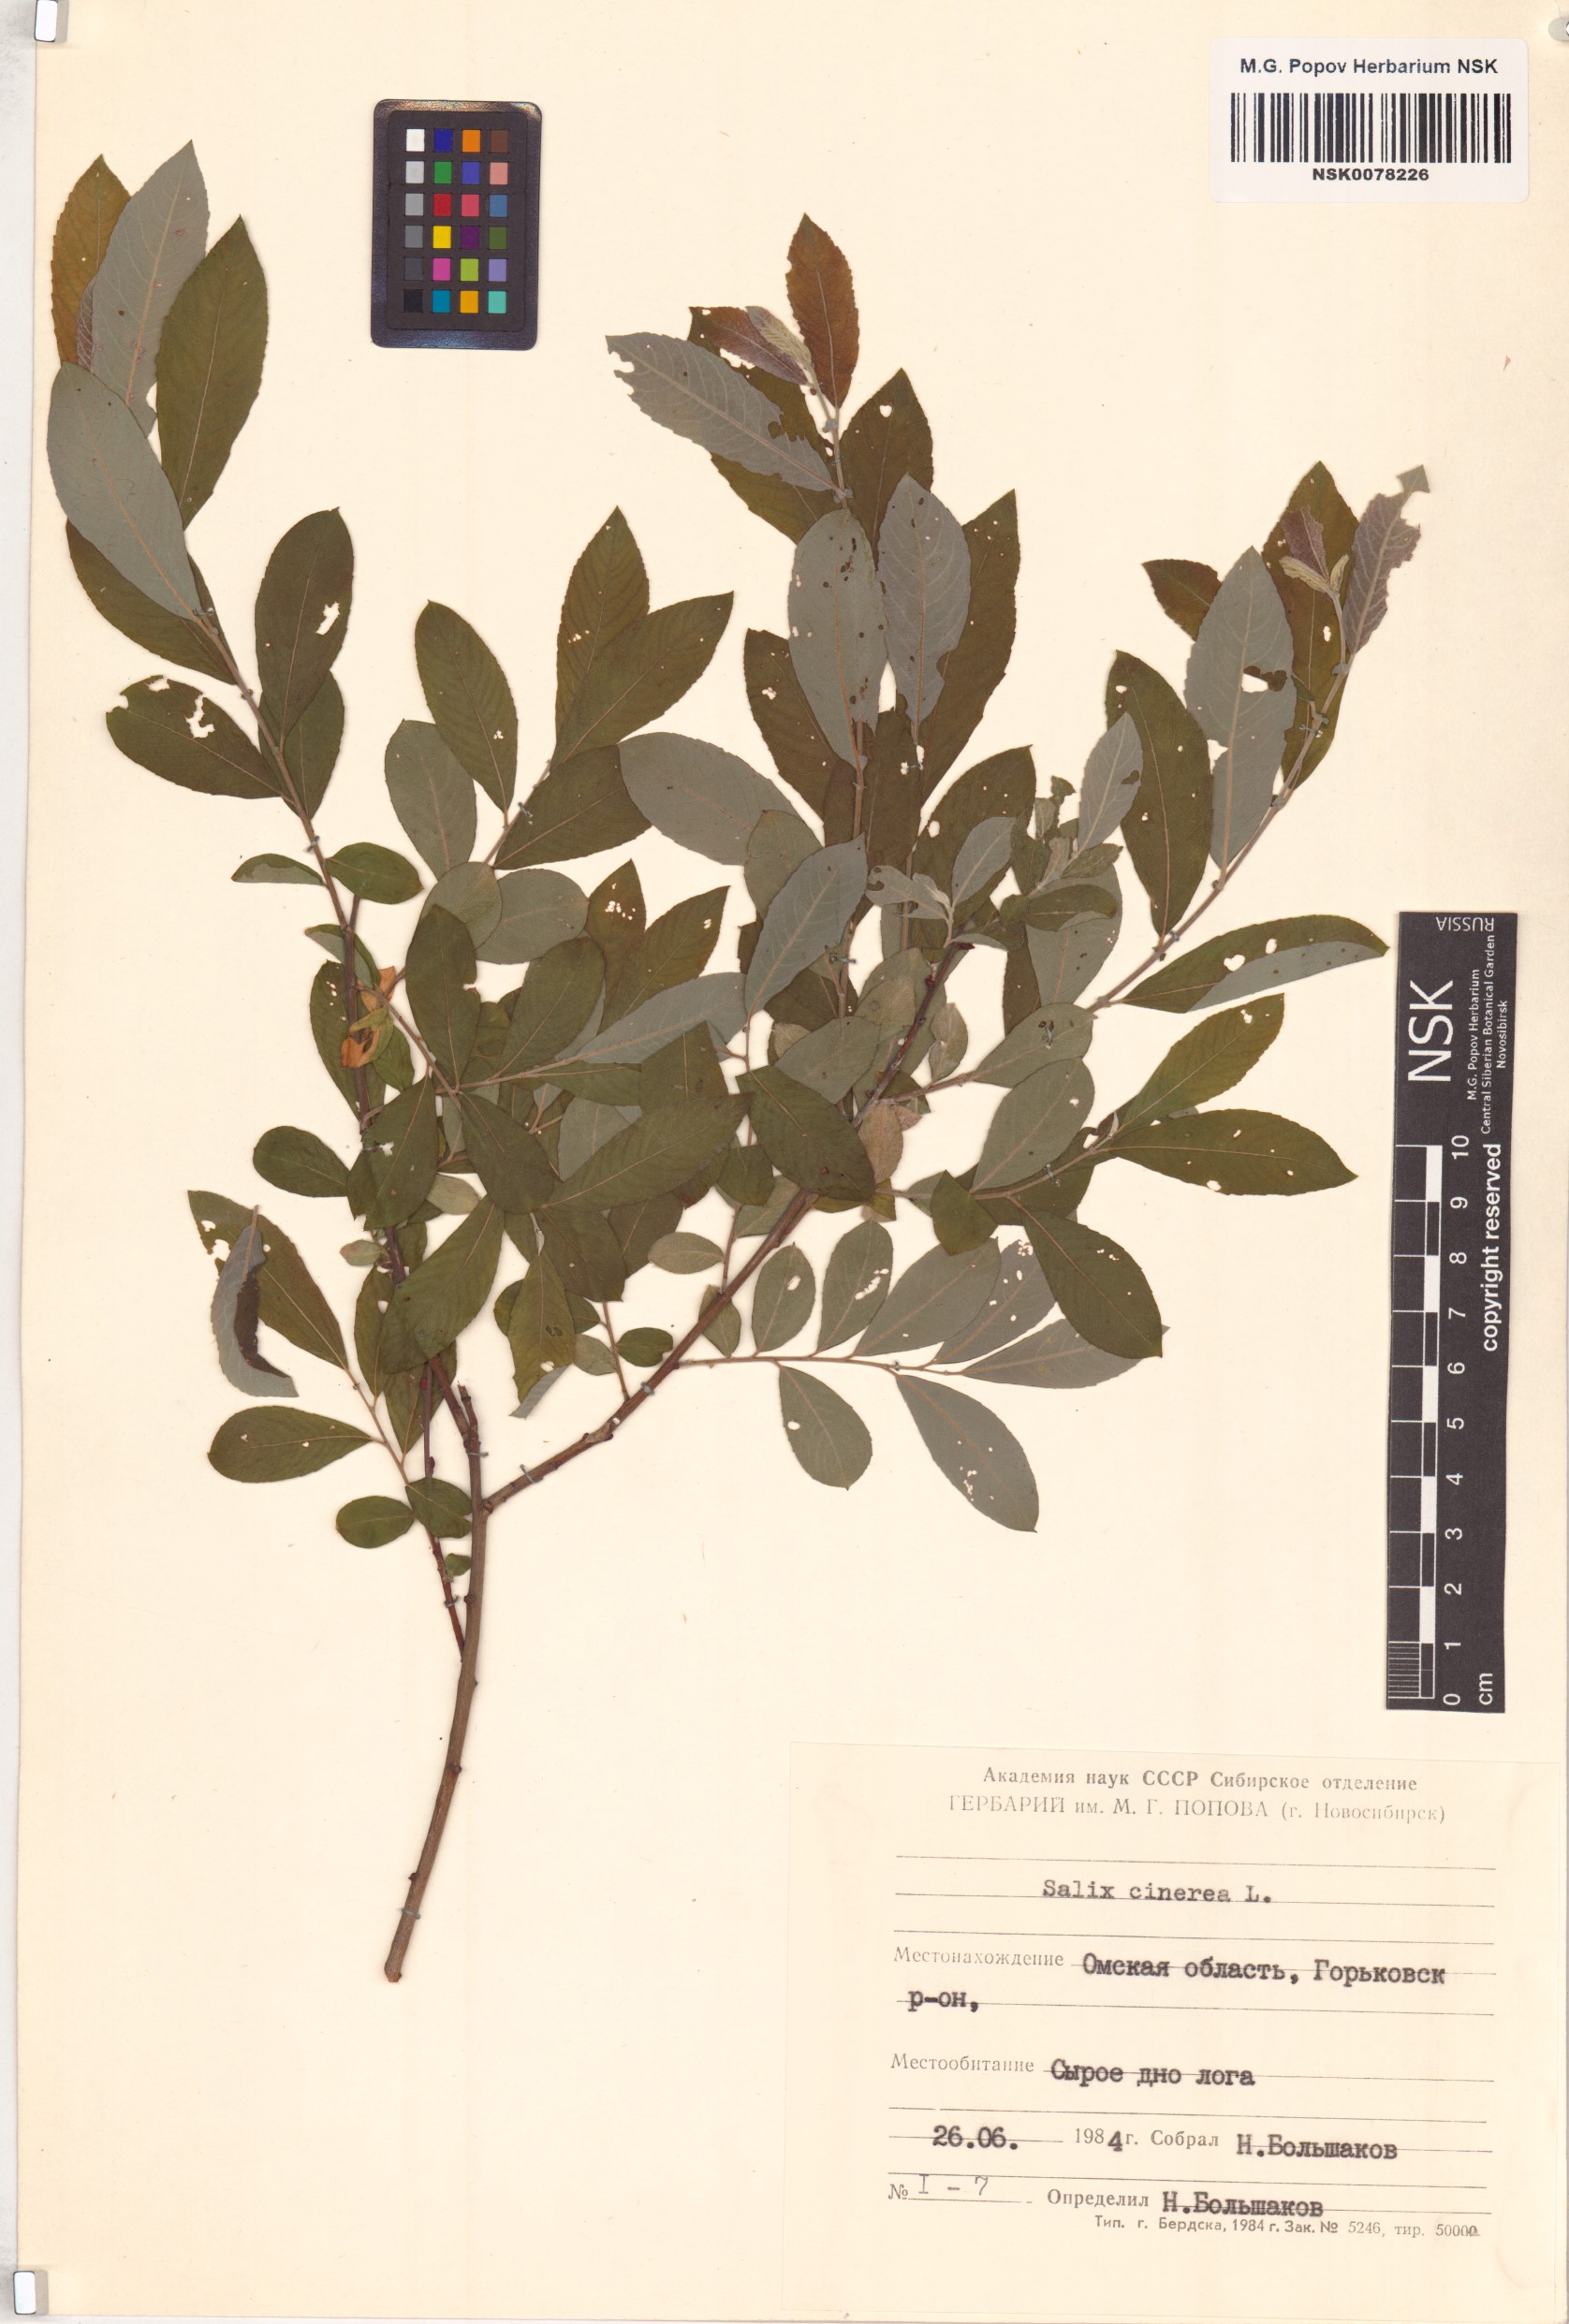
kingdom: Plantae
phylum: Tracheophyta
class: Magnoliopsida
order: Malpighiales
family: Salicaceae
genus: Salix
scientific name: Salix cinerea
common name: Common sallow
